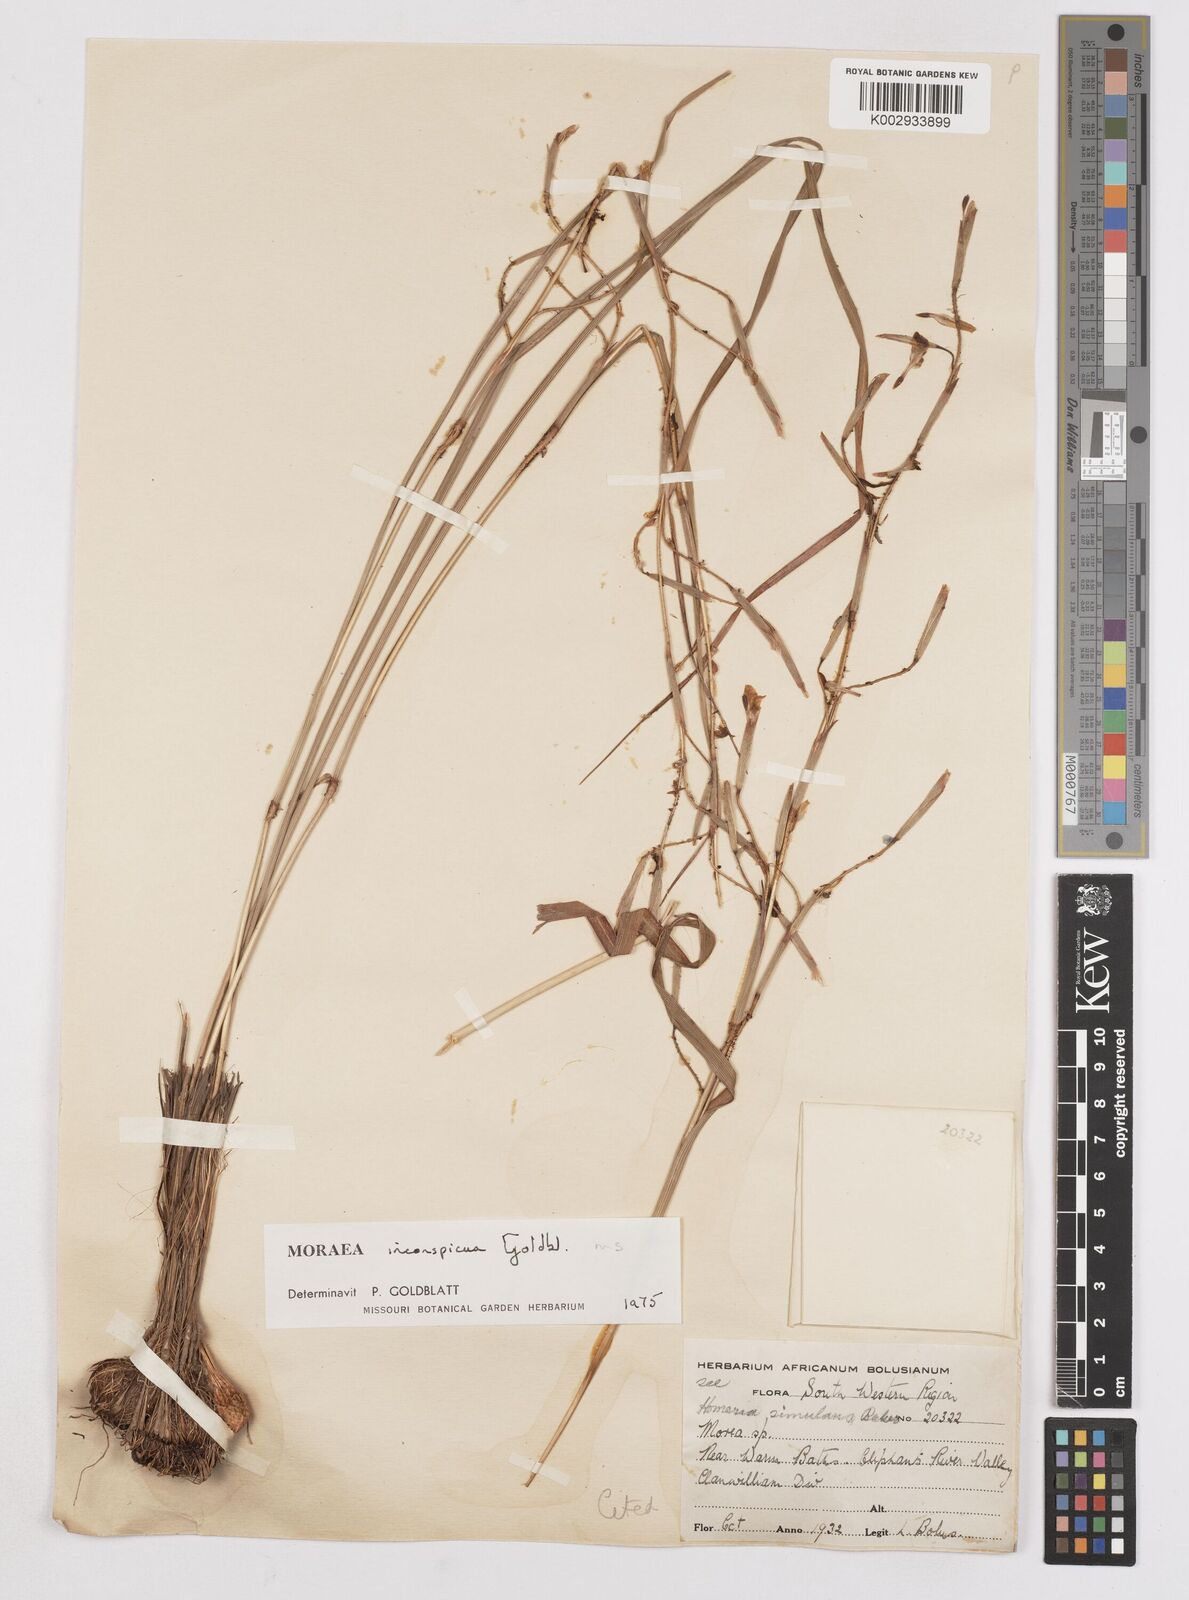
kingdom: Plantae
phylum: Tracheophyta
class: Liliopsida
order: Asparagales
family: Iridaceae
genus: Moraea
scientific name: Moraea inconspicua
